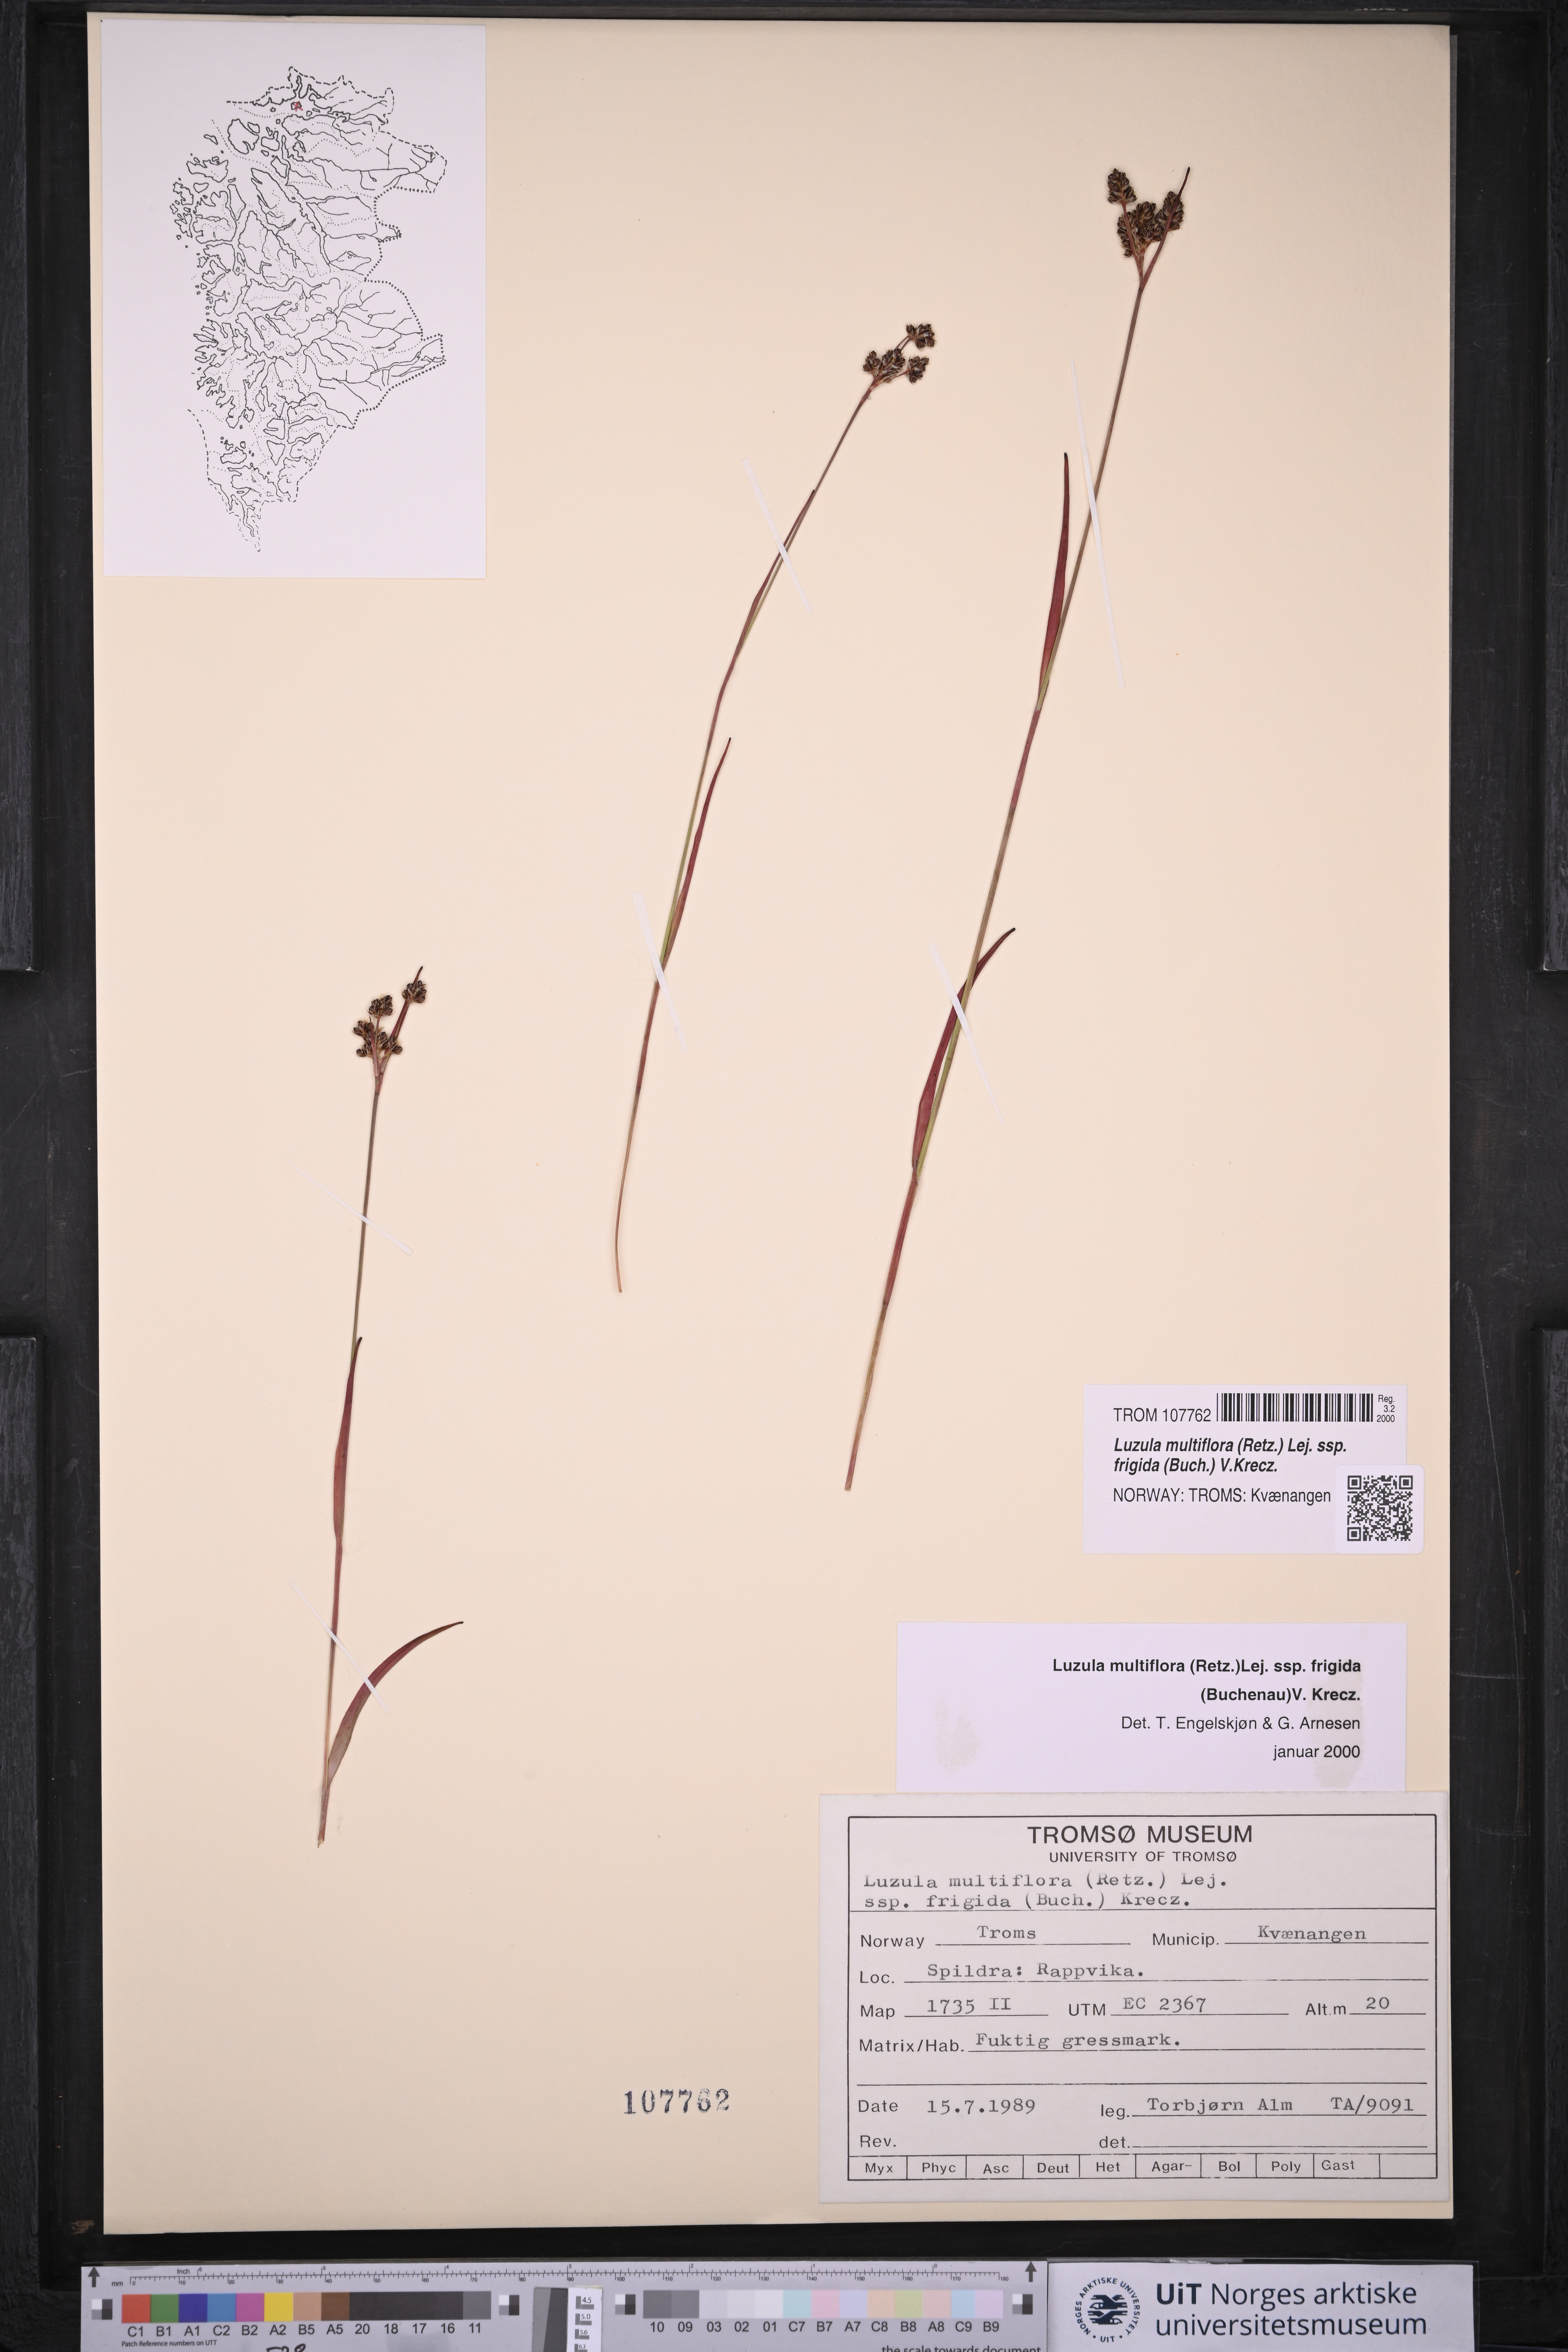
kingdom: Plantae
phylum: Tracheophyta
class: Liliopsida
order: Poales
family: Juncaceae
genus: Luzula
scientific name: Luzula multiflora
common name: Heath wood-rush
